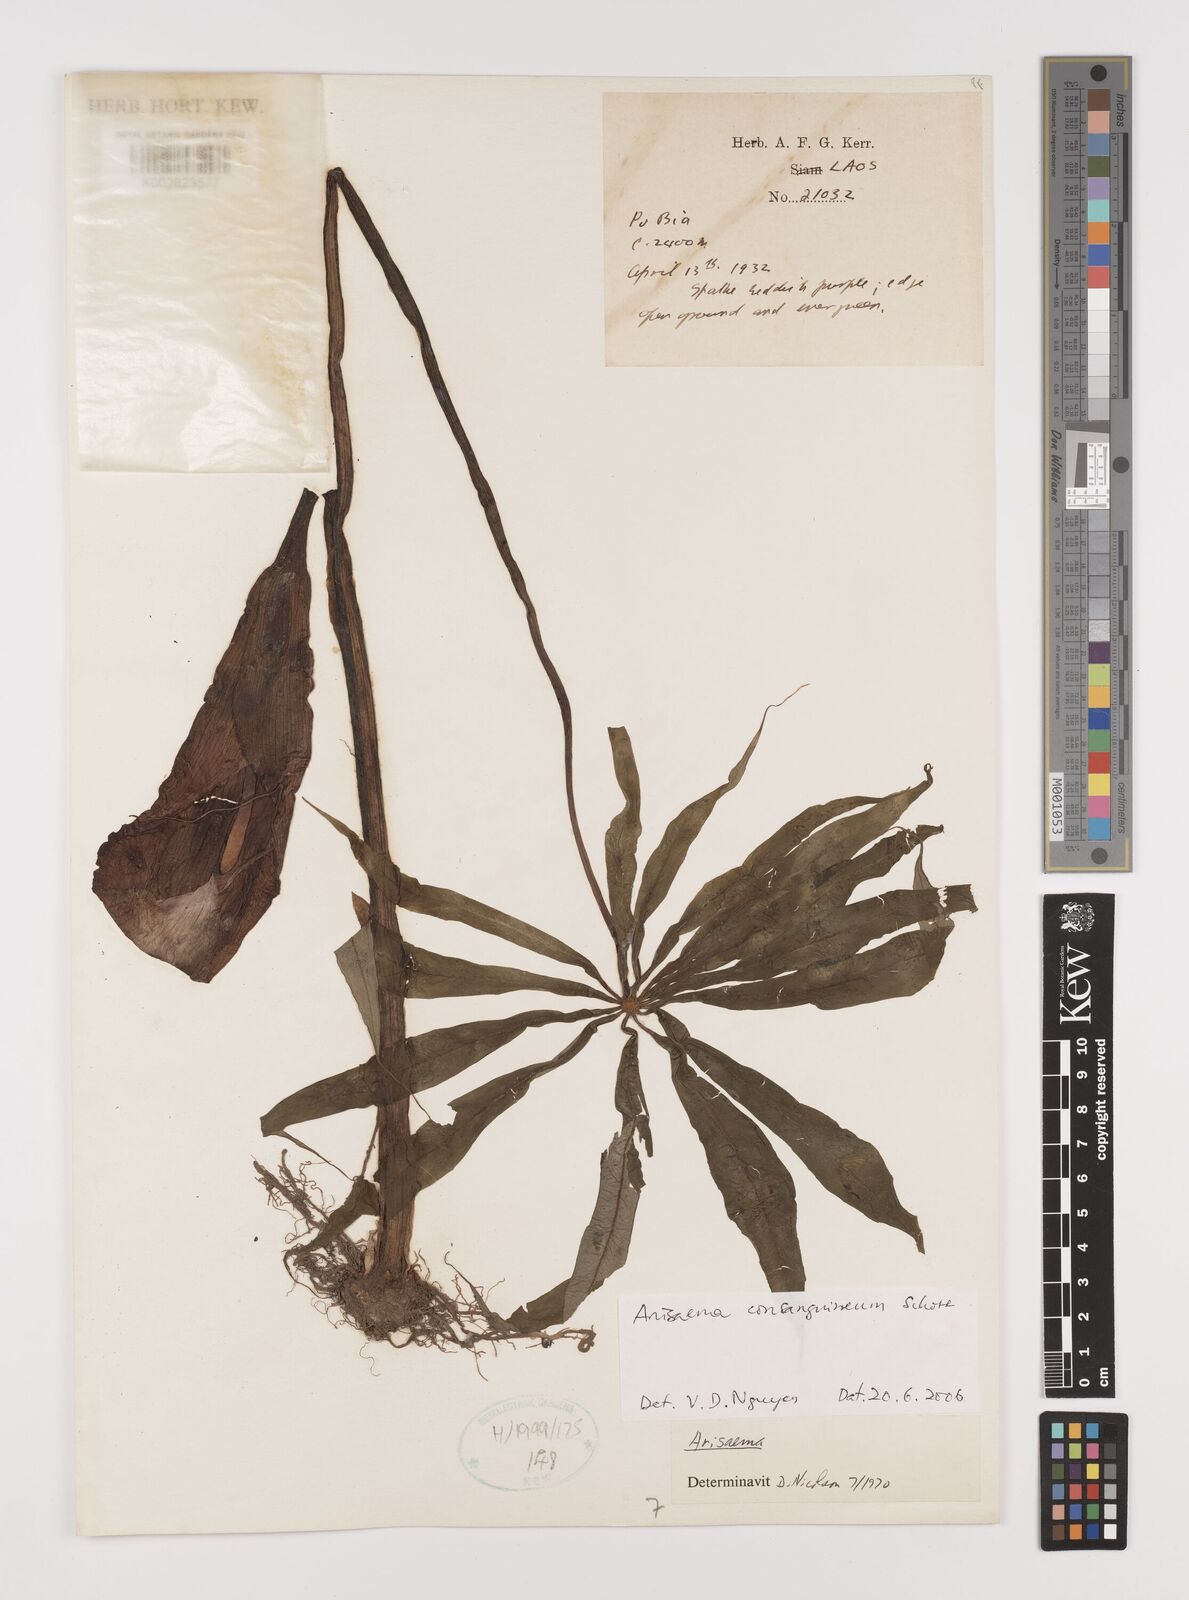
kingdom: Plantae
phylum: Tracheophyta
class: Liliopsida
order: Alismatales
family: Araceae
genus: Arisaema
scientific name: Arisaema consanguineum
